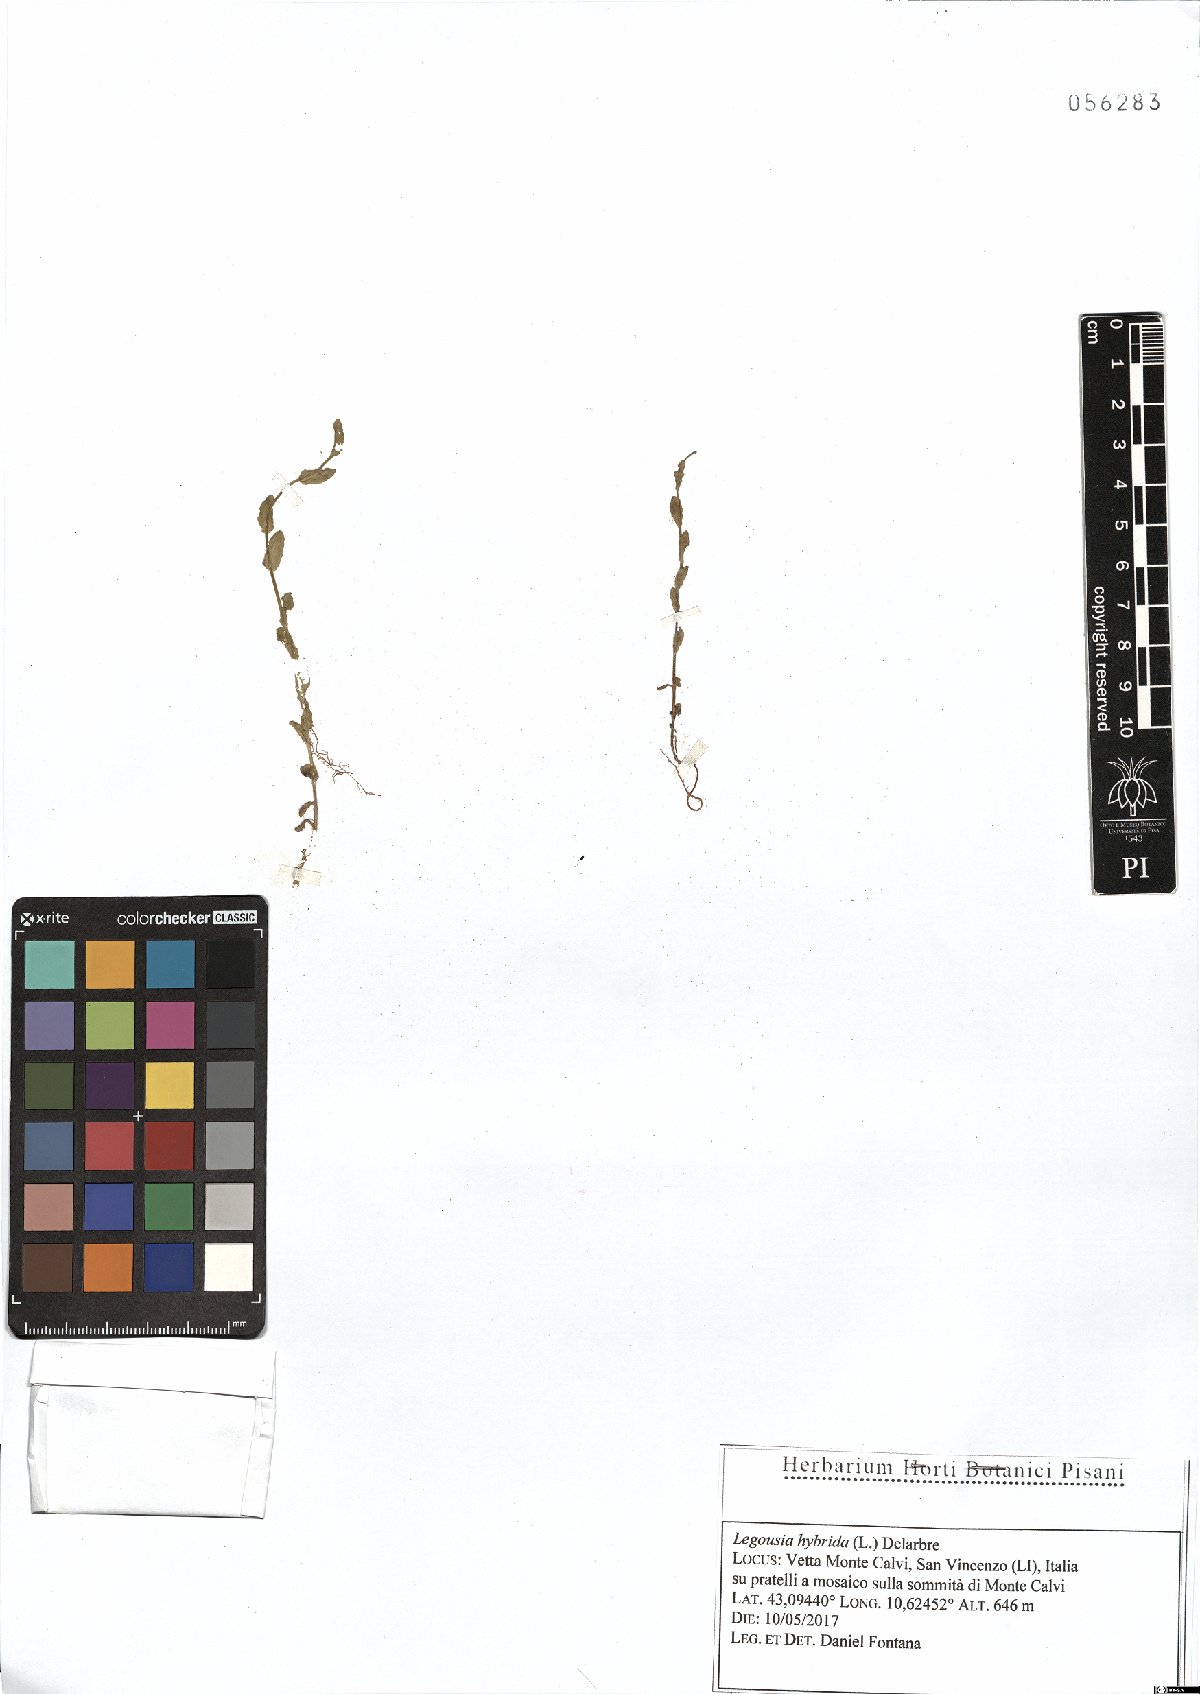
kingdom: Plantae
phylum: Tracheophyta
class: Magnoliopsida
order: Asterales
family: Campanulaceae
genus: Legousia
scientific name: Legousia hybrida
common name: Venus's-looking-glass
